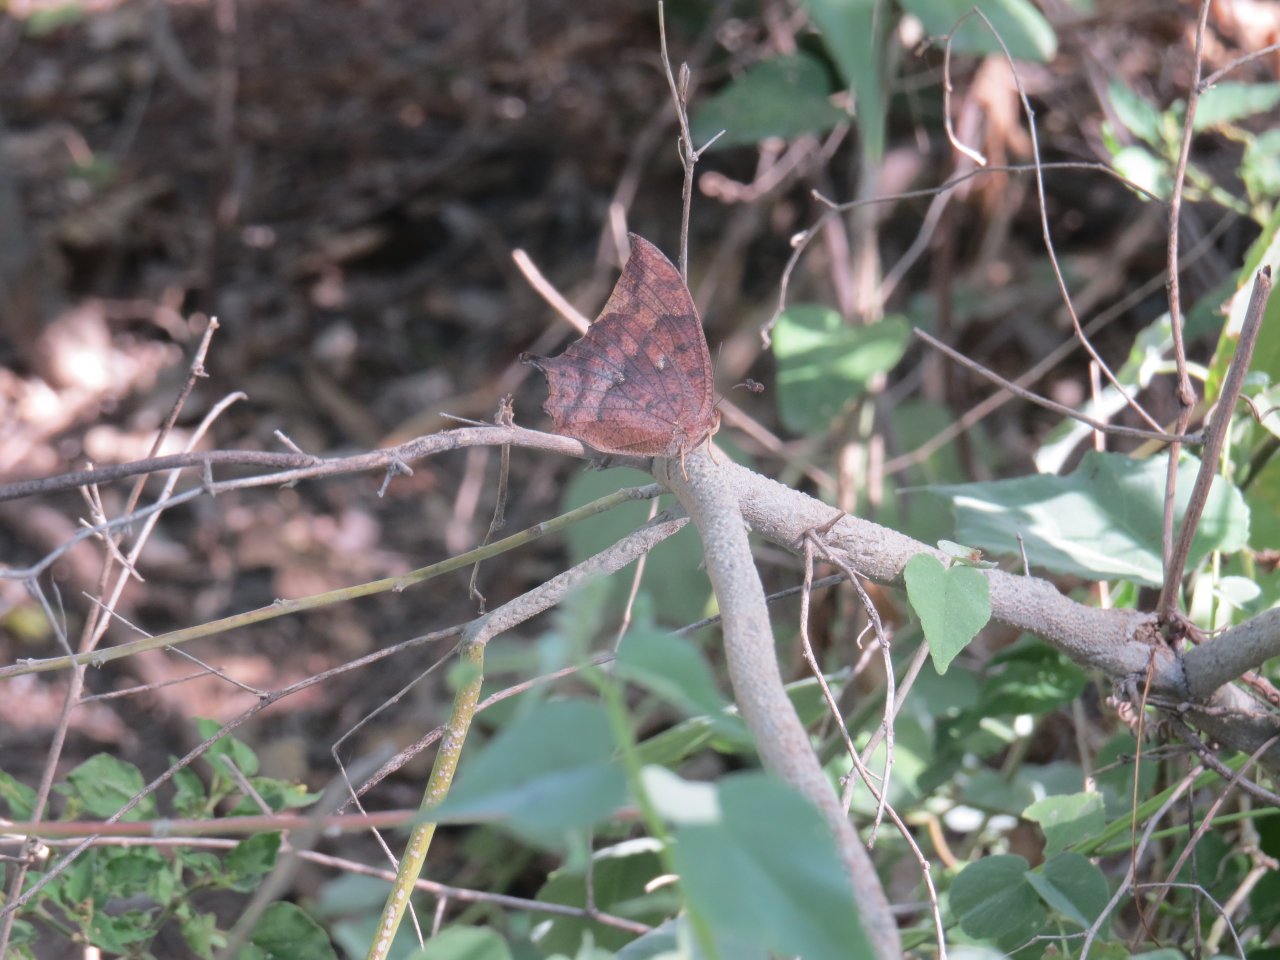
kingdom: Animalia
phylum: Arthropoda
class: Insecta
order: Lepidoptera
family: Nymphalidae
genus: Anaea
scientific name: Anaea aidea
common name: Tropical Leafwing
